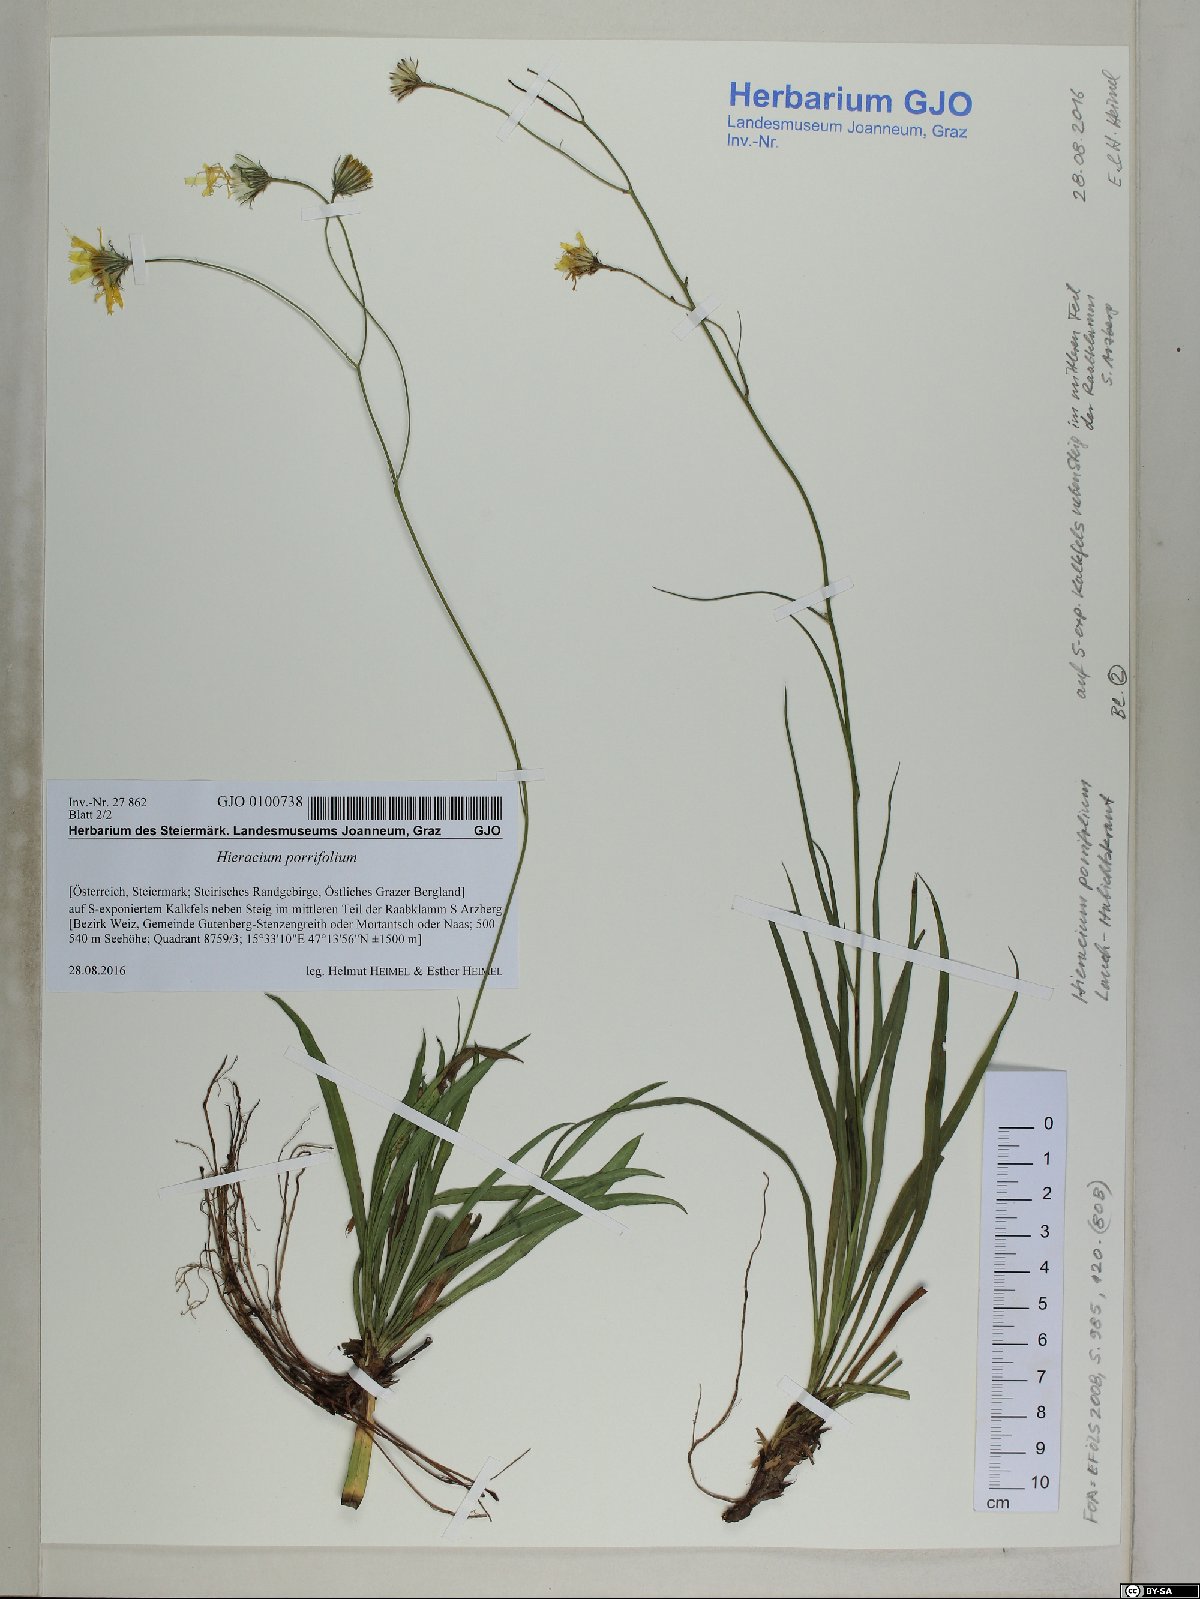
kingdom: Plantae
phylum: Tracheophyta
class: Magnoliopsida
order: Asterales
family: Asteraceae
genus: Hieracium
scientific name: Hieracium porrifolium
